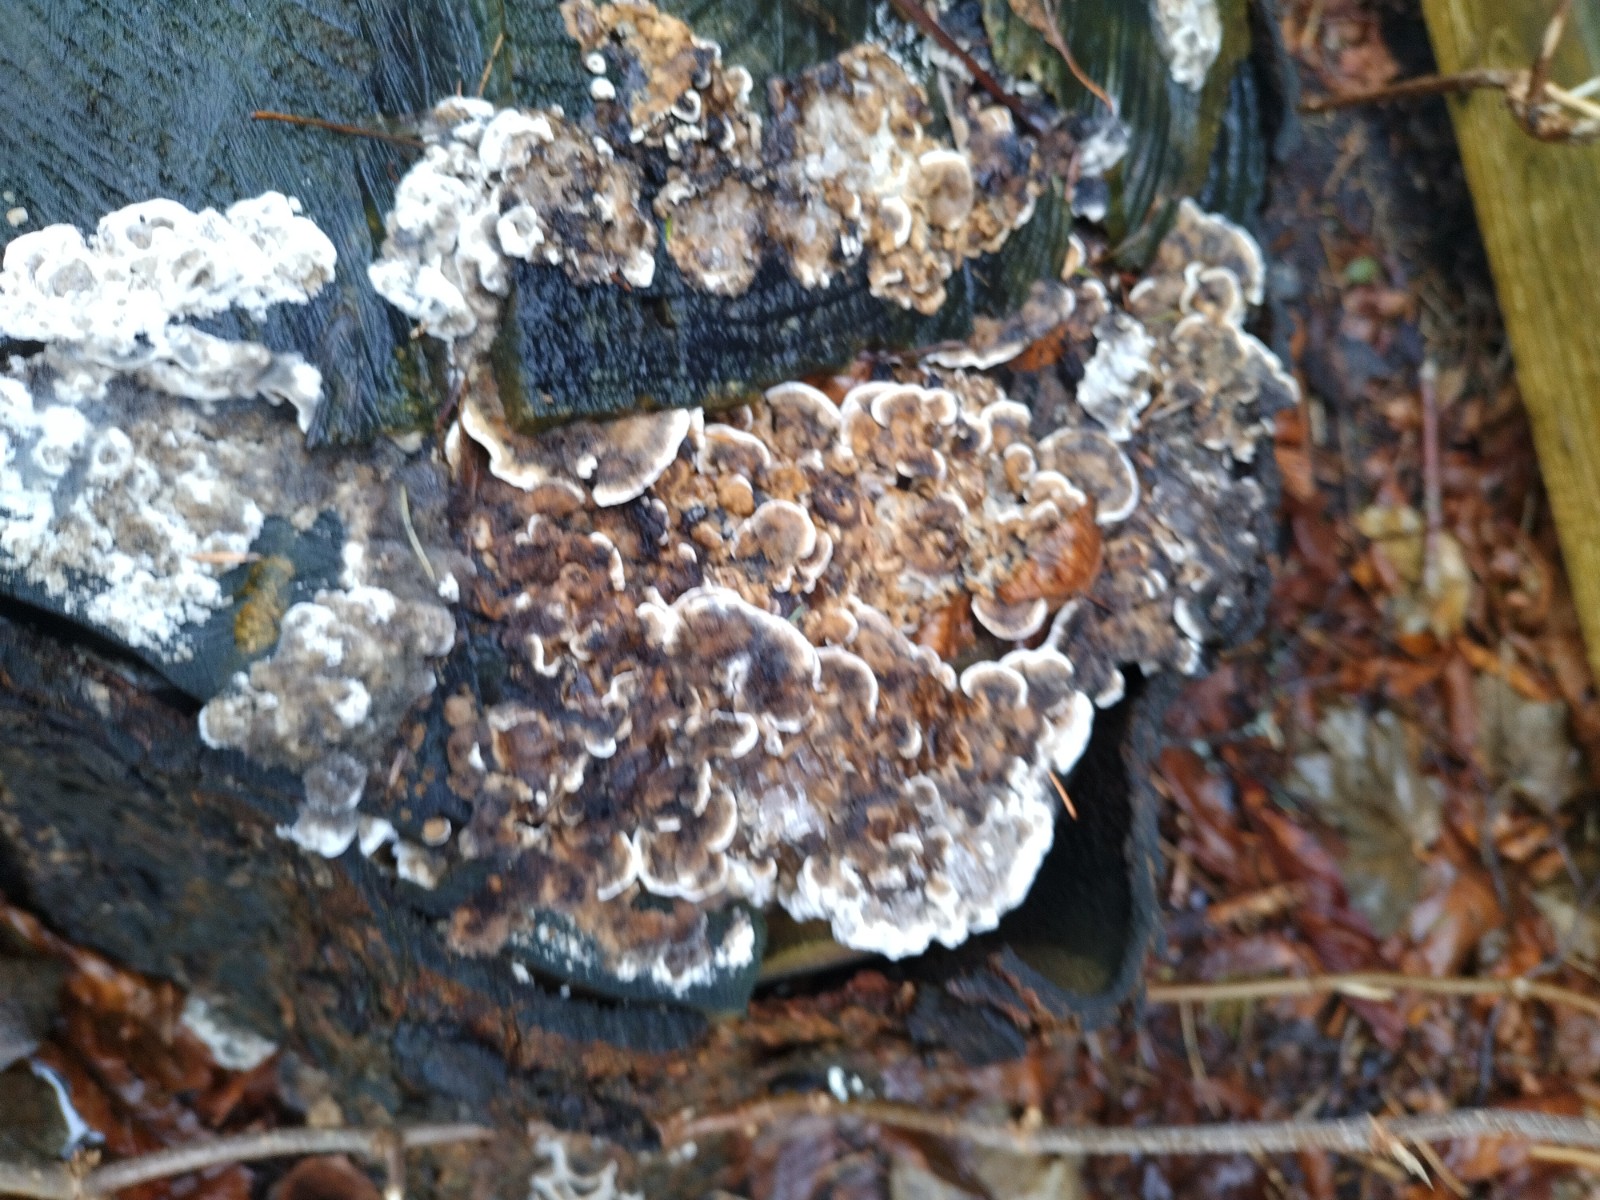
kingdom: Fungi
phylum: Basidiomycota
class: Agaricomycetes
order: Polyporales
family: Phanerochaetaceae
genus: Bjerkandera
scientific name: Bjerkandera adusta
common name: sveden sodporesvamp
